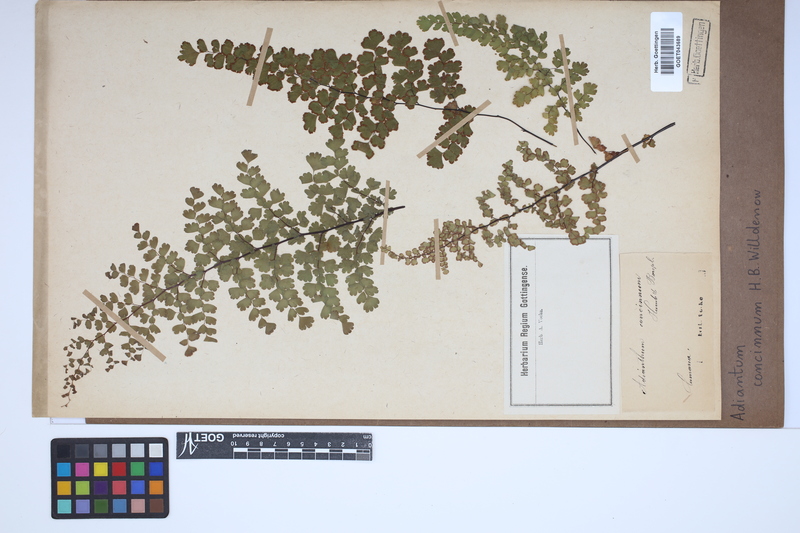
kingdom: Plantae
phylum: Tracheophyta
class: Polypodiopsida
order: Polypodiales
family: Pteridaceae
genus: Adiantum
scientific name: Adiantum concinnum
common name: Brittle maidenhair fern
